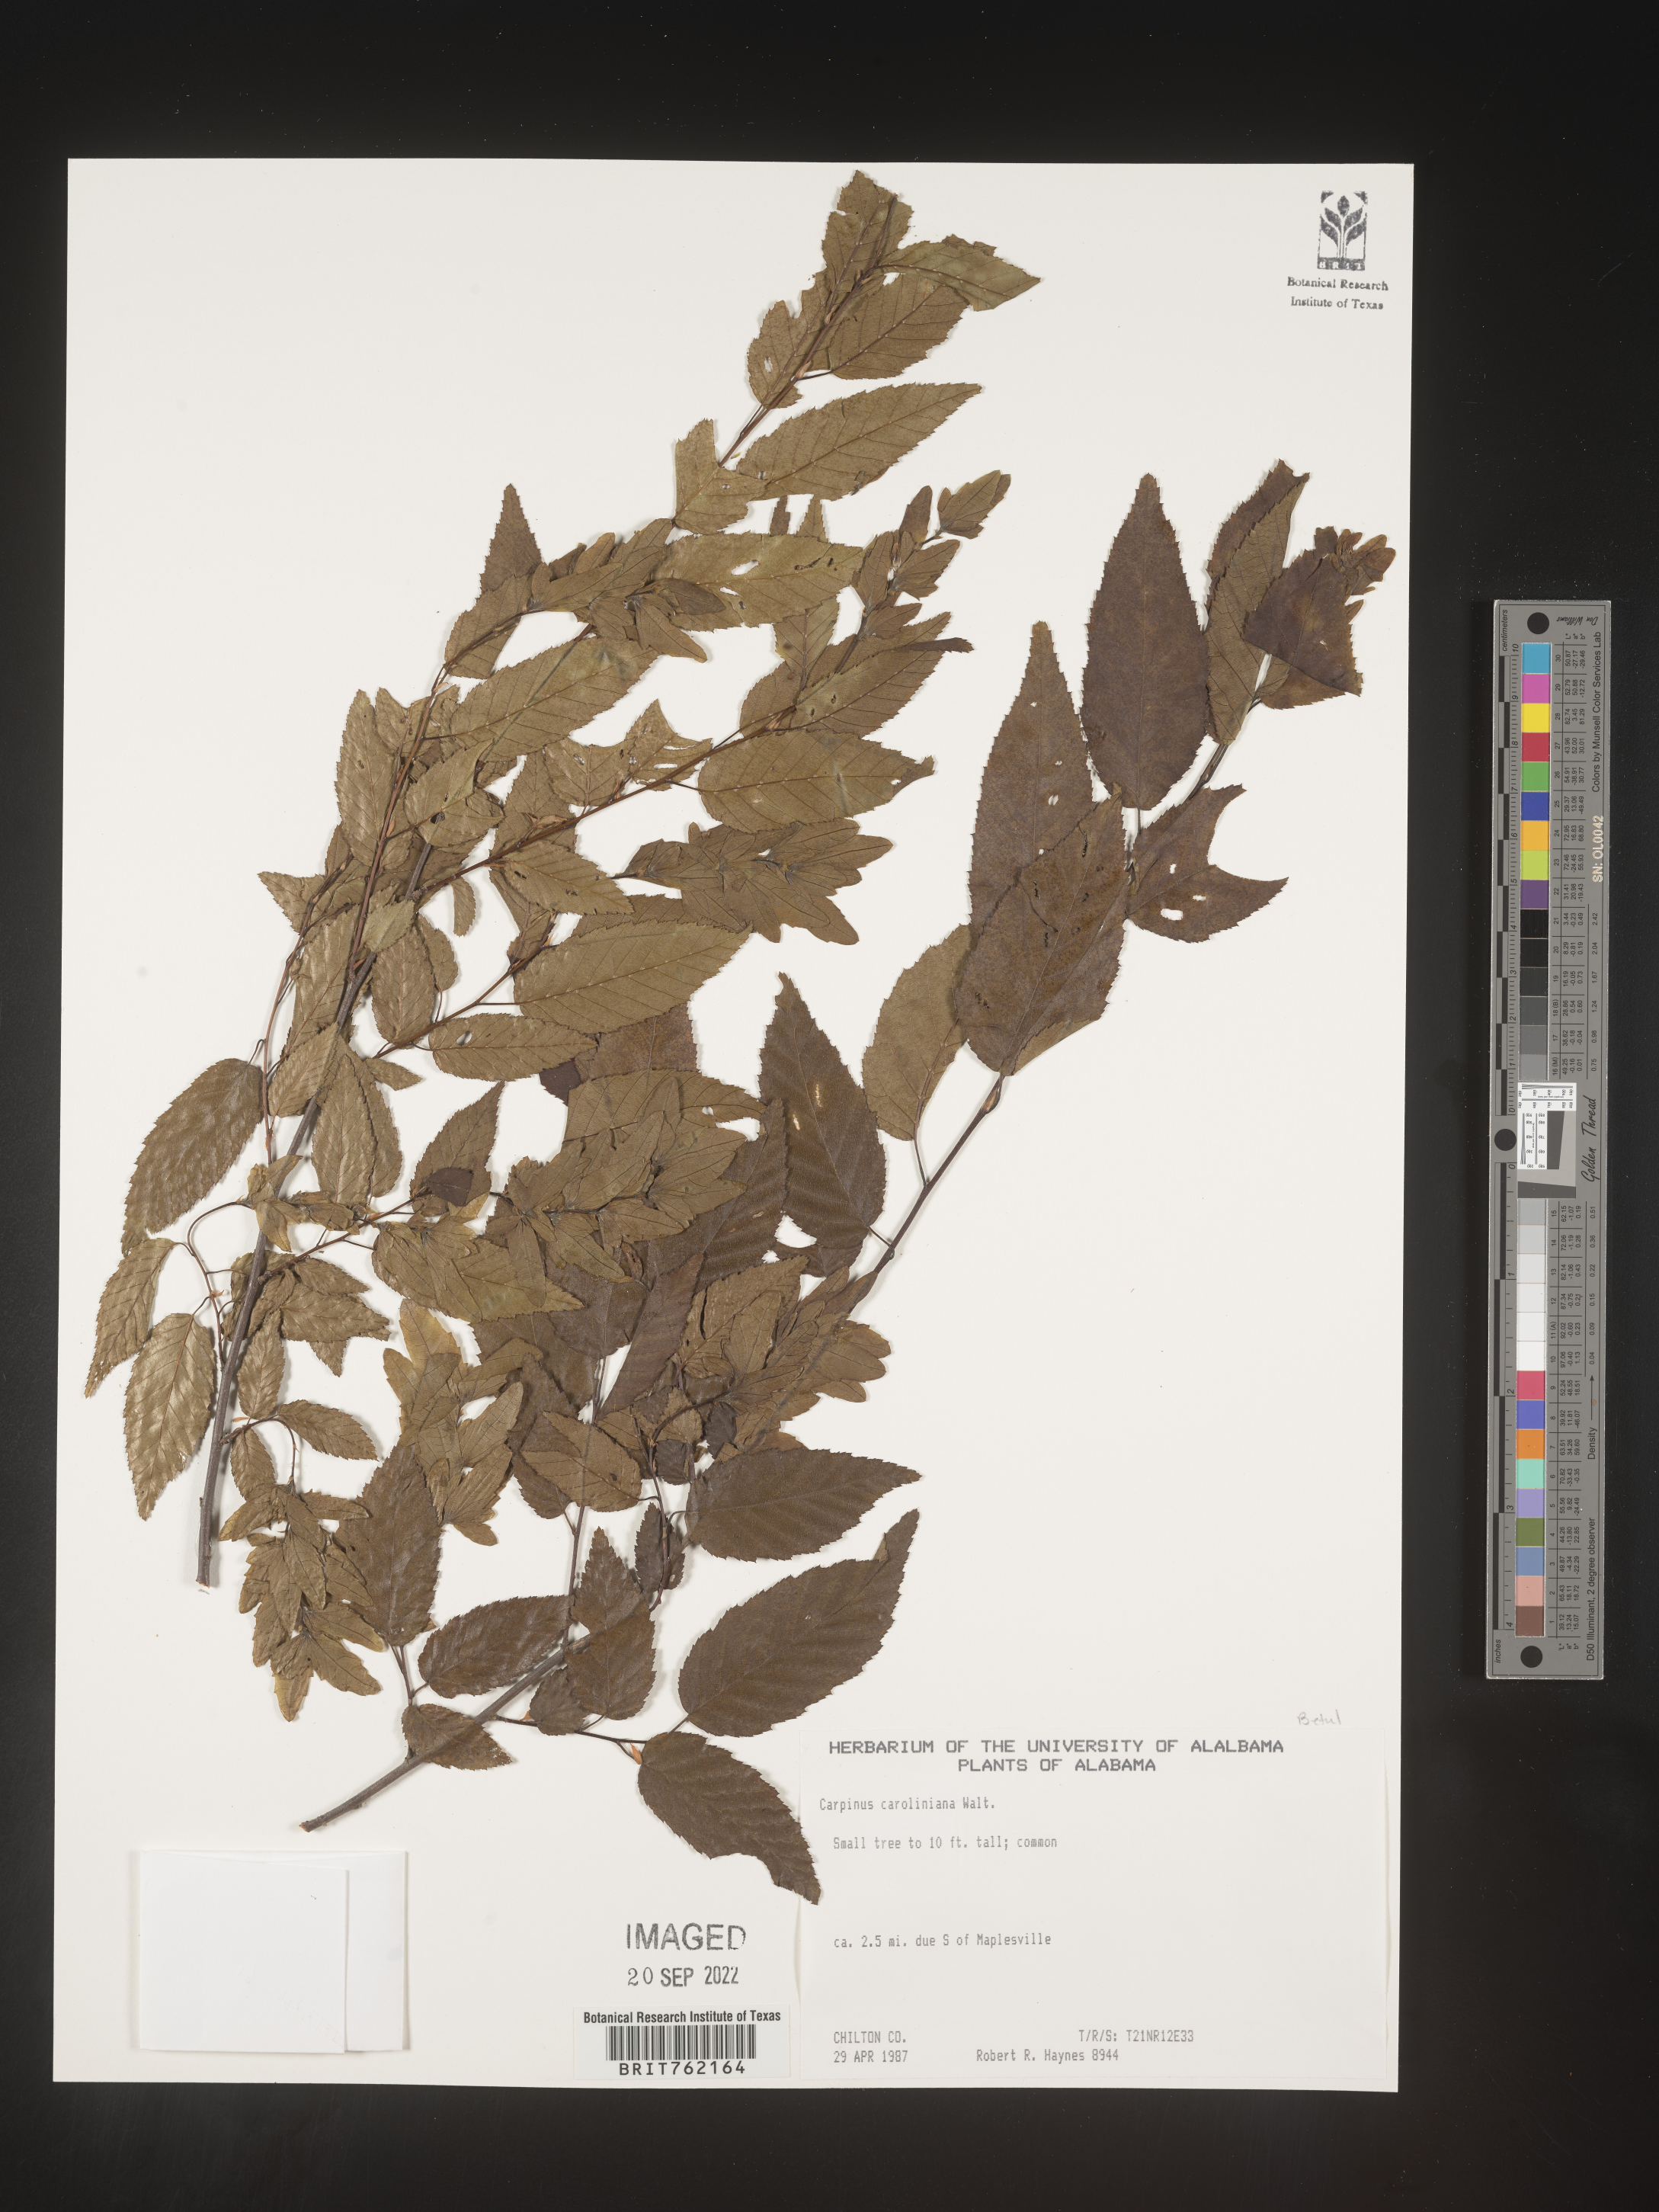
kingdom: Plantae
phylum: Tracheophyta
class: Magnoliopsida
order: Fagales
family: Betulaceae
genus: Carpinus
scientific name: Carpinus caroliniana
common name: American hornbeam
